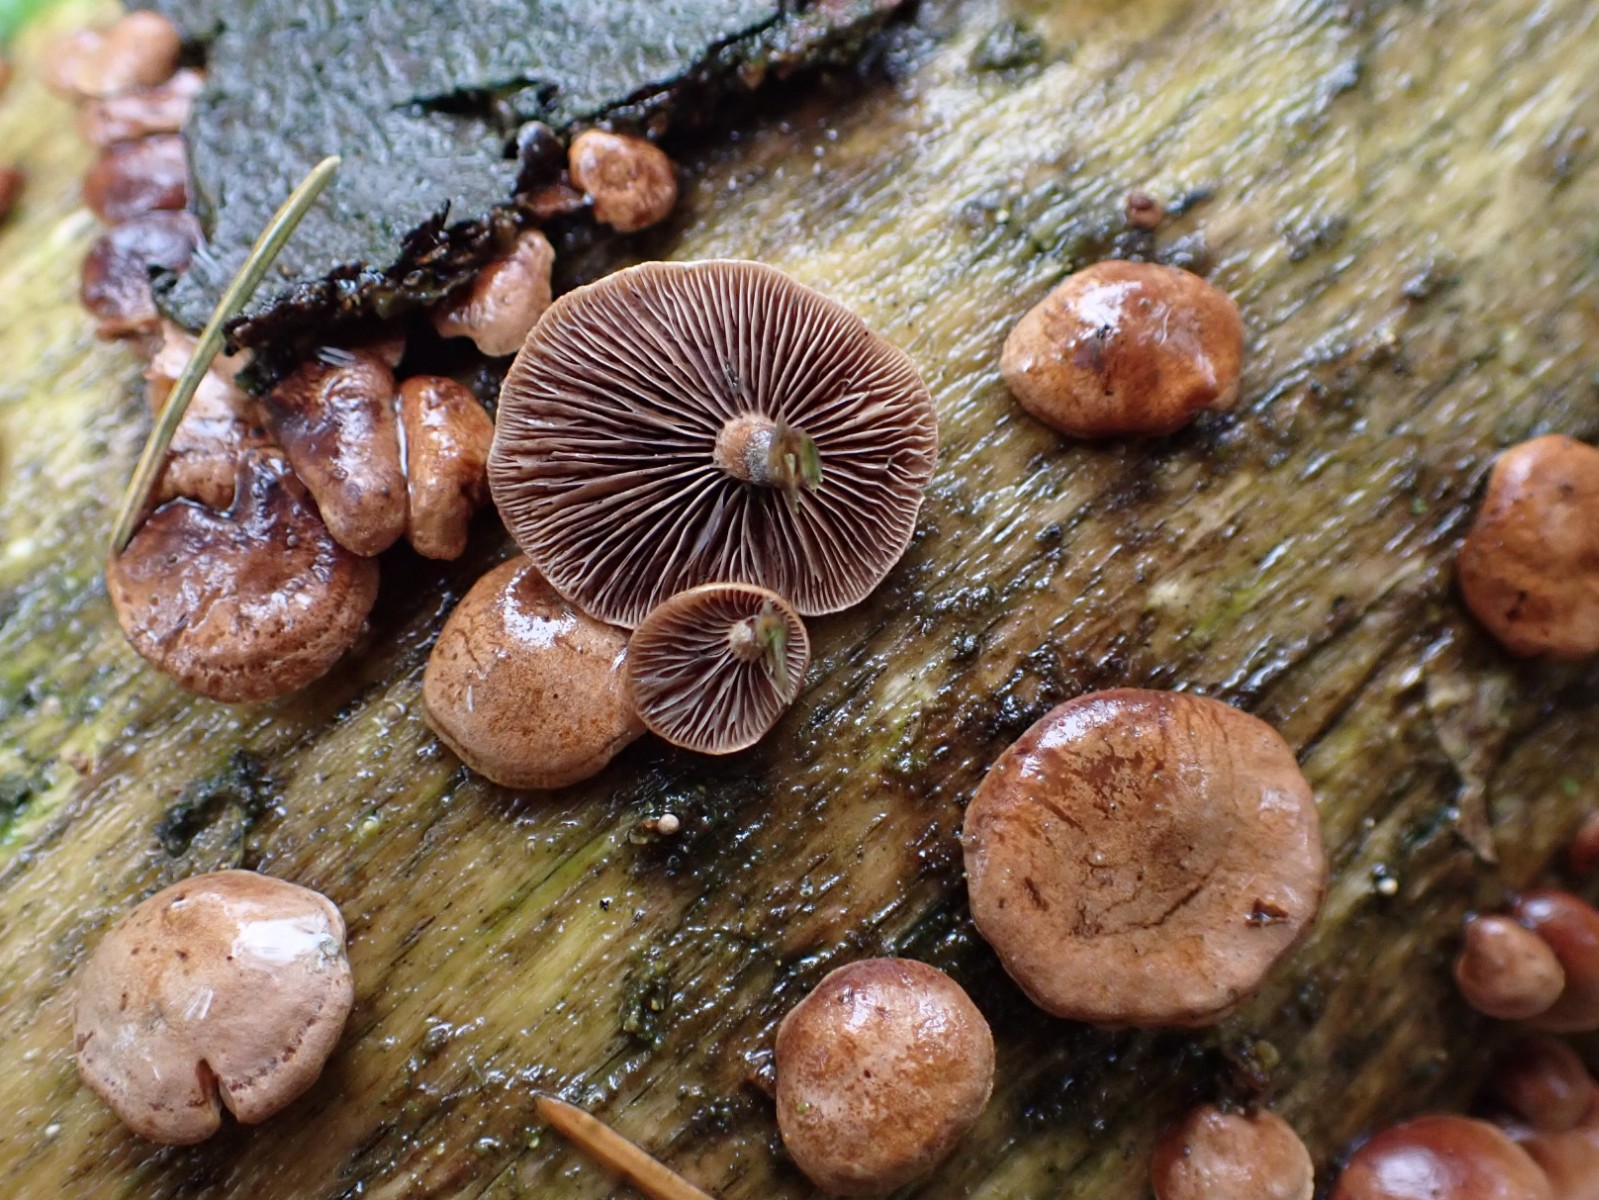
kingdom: Fungi
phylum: Basidiomycota
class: Agaricomycetes
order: Agaricales
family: Strophariaceae
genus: Deconica
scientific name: Deconica horizontalis
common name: ved-stråhat
